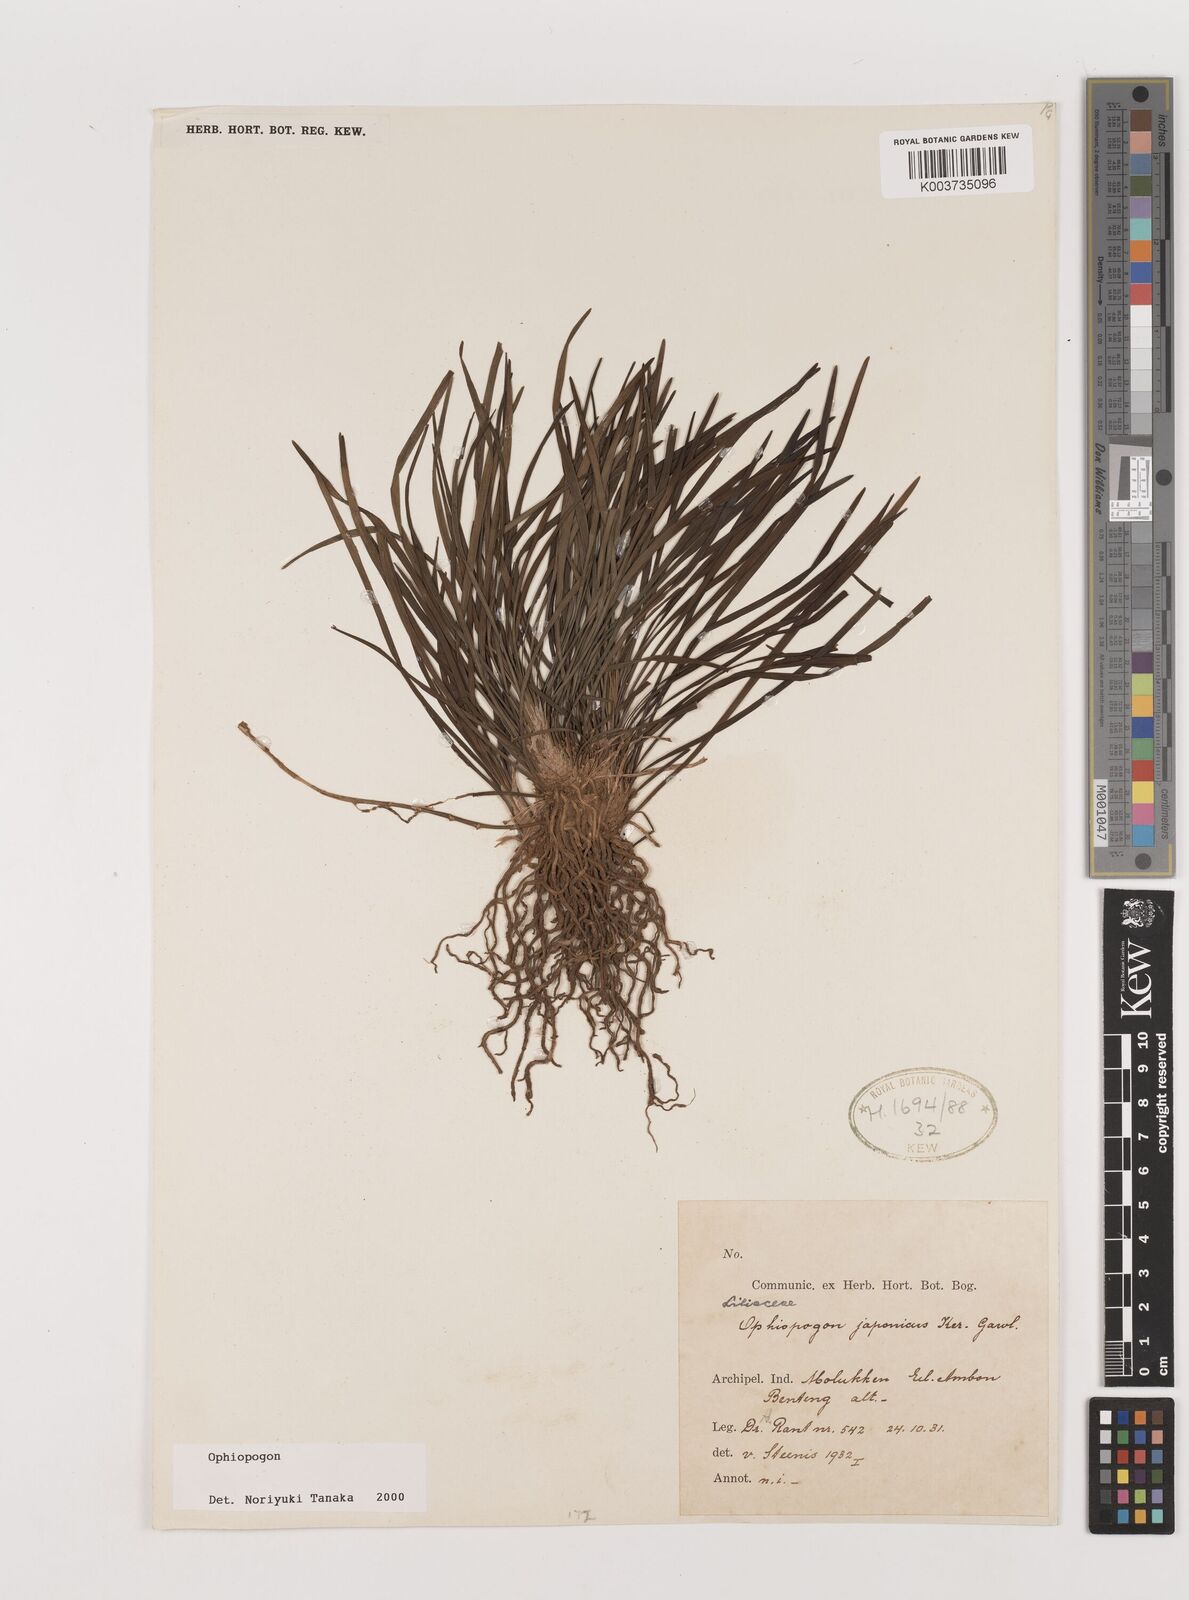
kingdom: Plantae
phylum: Tracheophyta
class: Liliopsida
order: Asparagales
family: Asparagaceae
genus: Ophiopogon
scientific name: Ophiopogon
